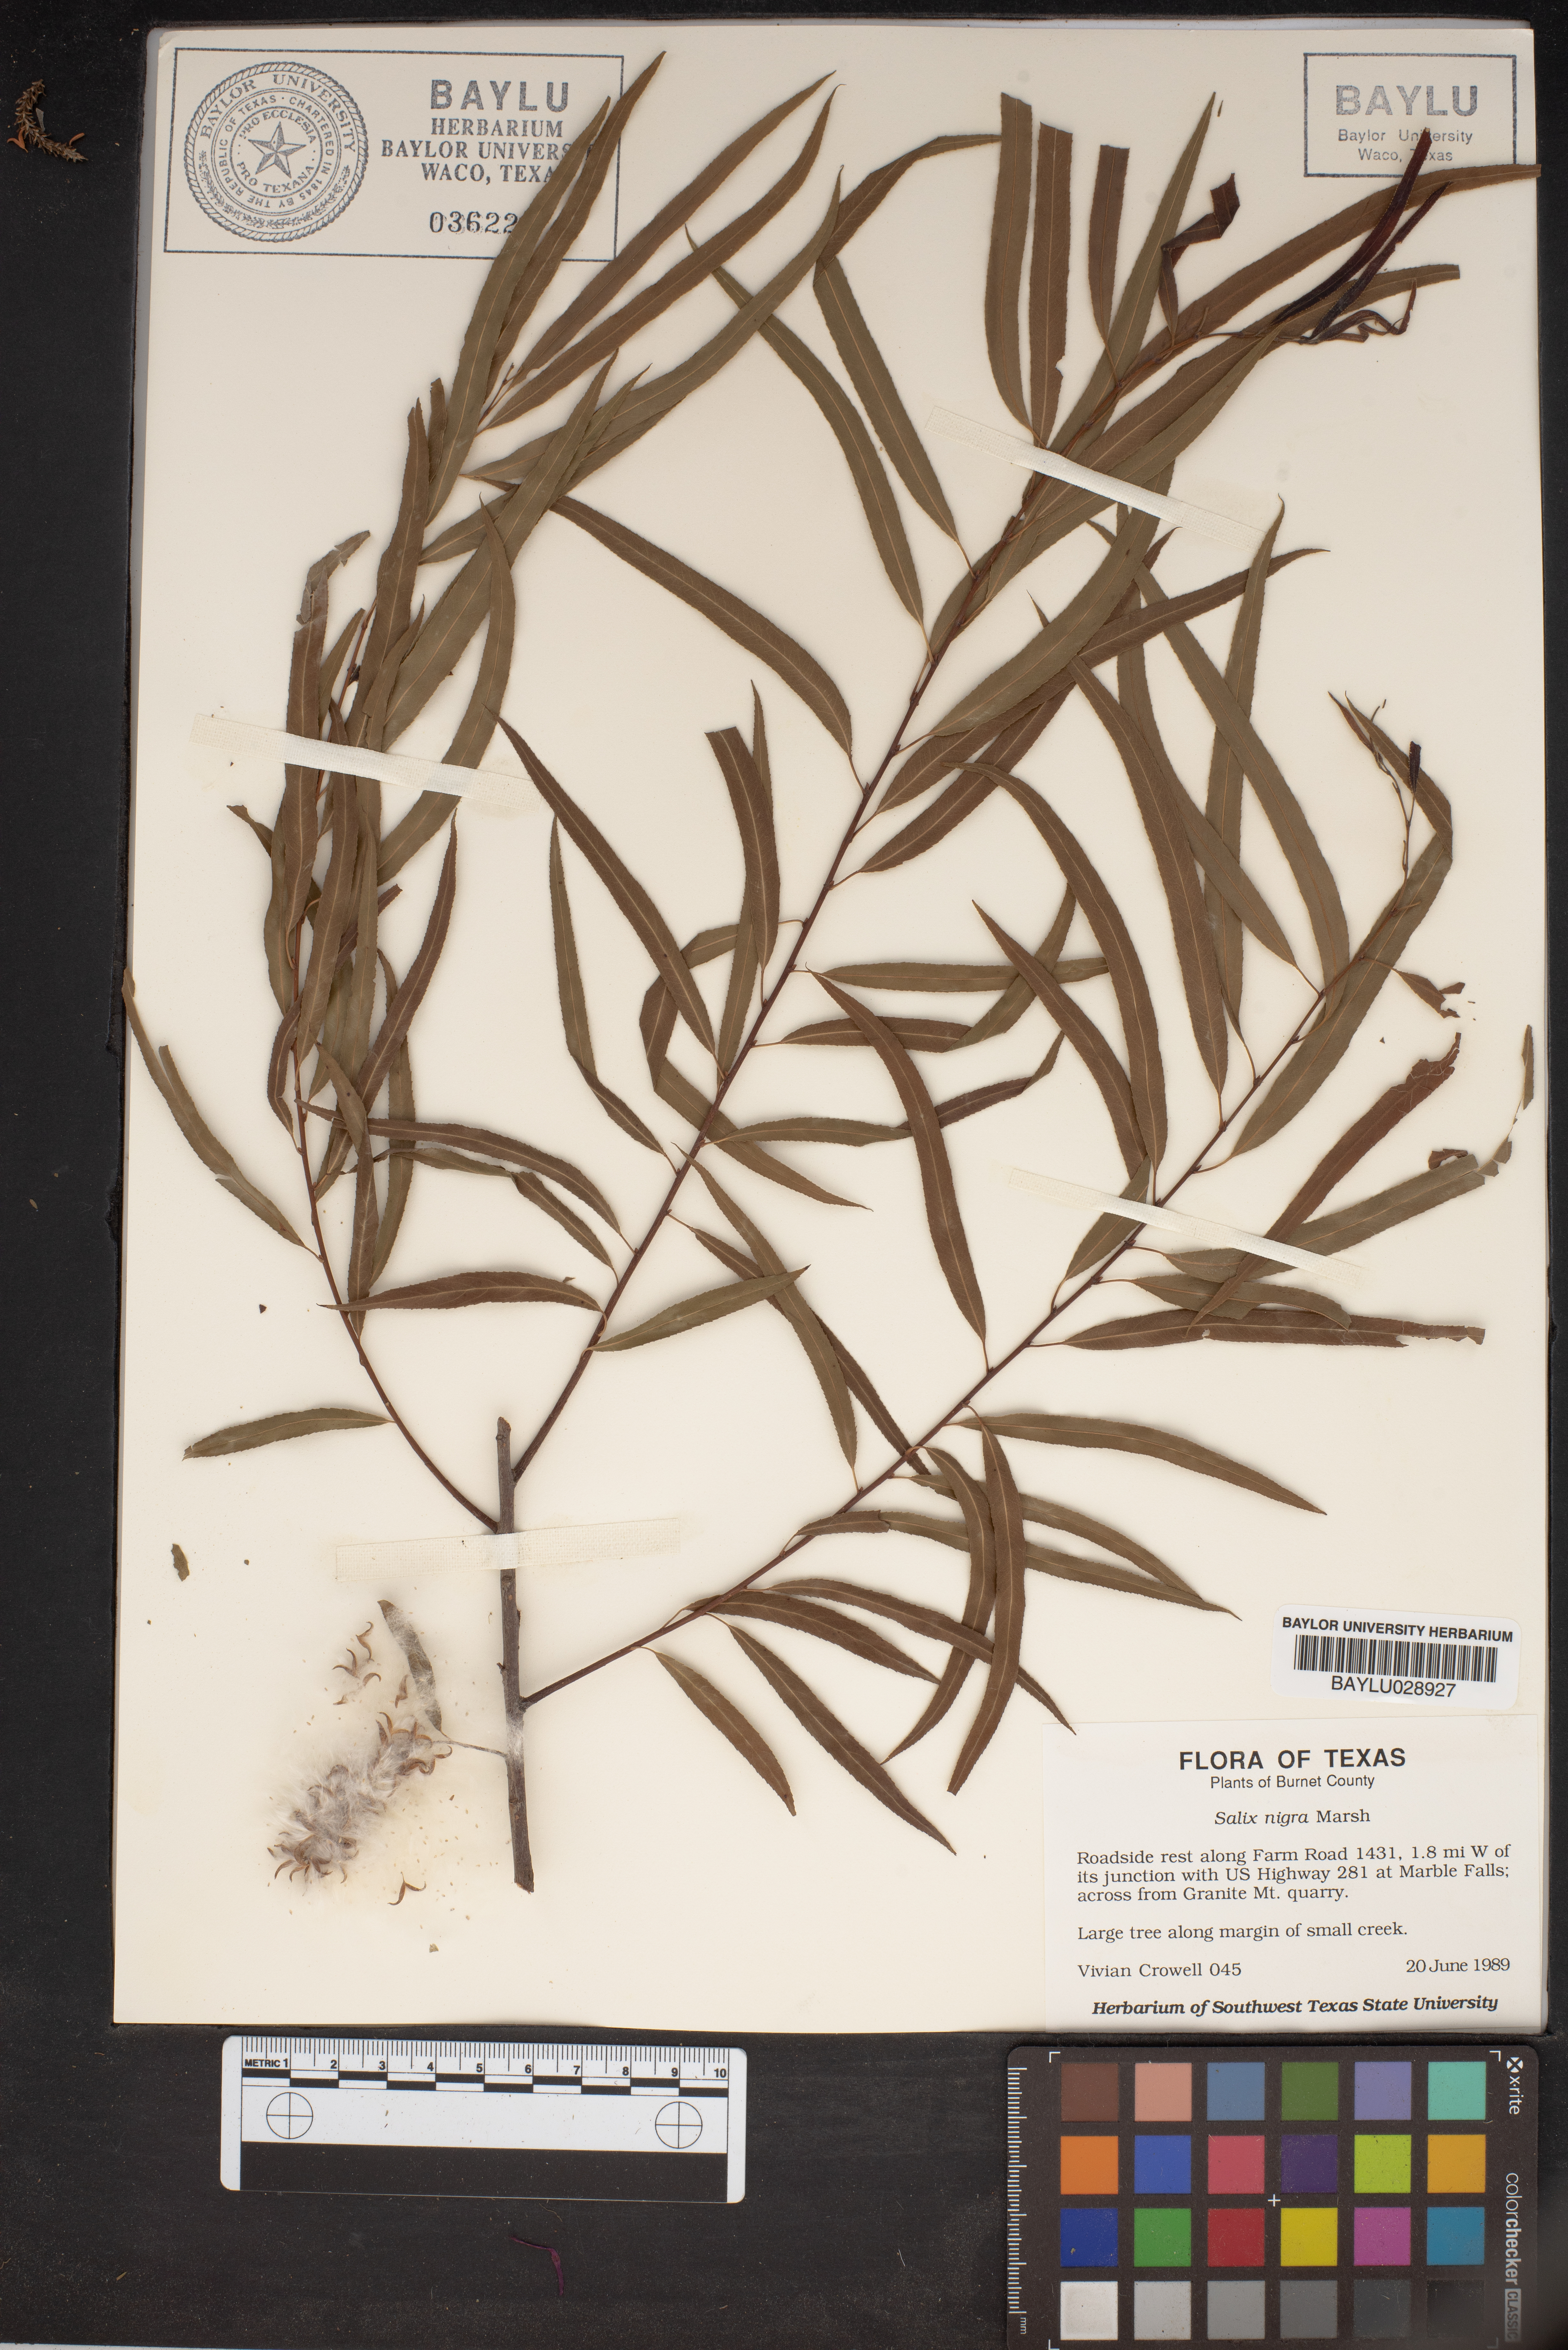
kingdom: Plantae
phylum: Tracheophyta
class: Magnoliopsida
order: Malpighiales
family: Salicaceae
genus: Salix
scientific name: Salix nigra
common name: Black willow
